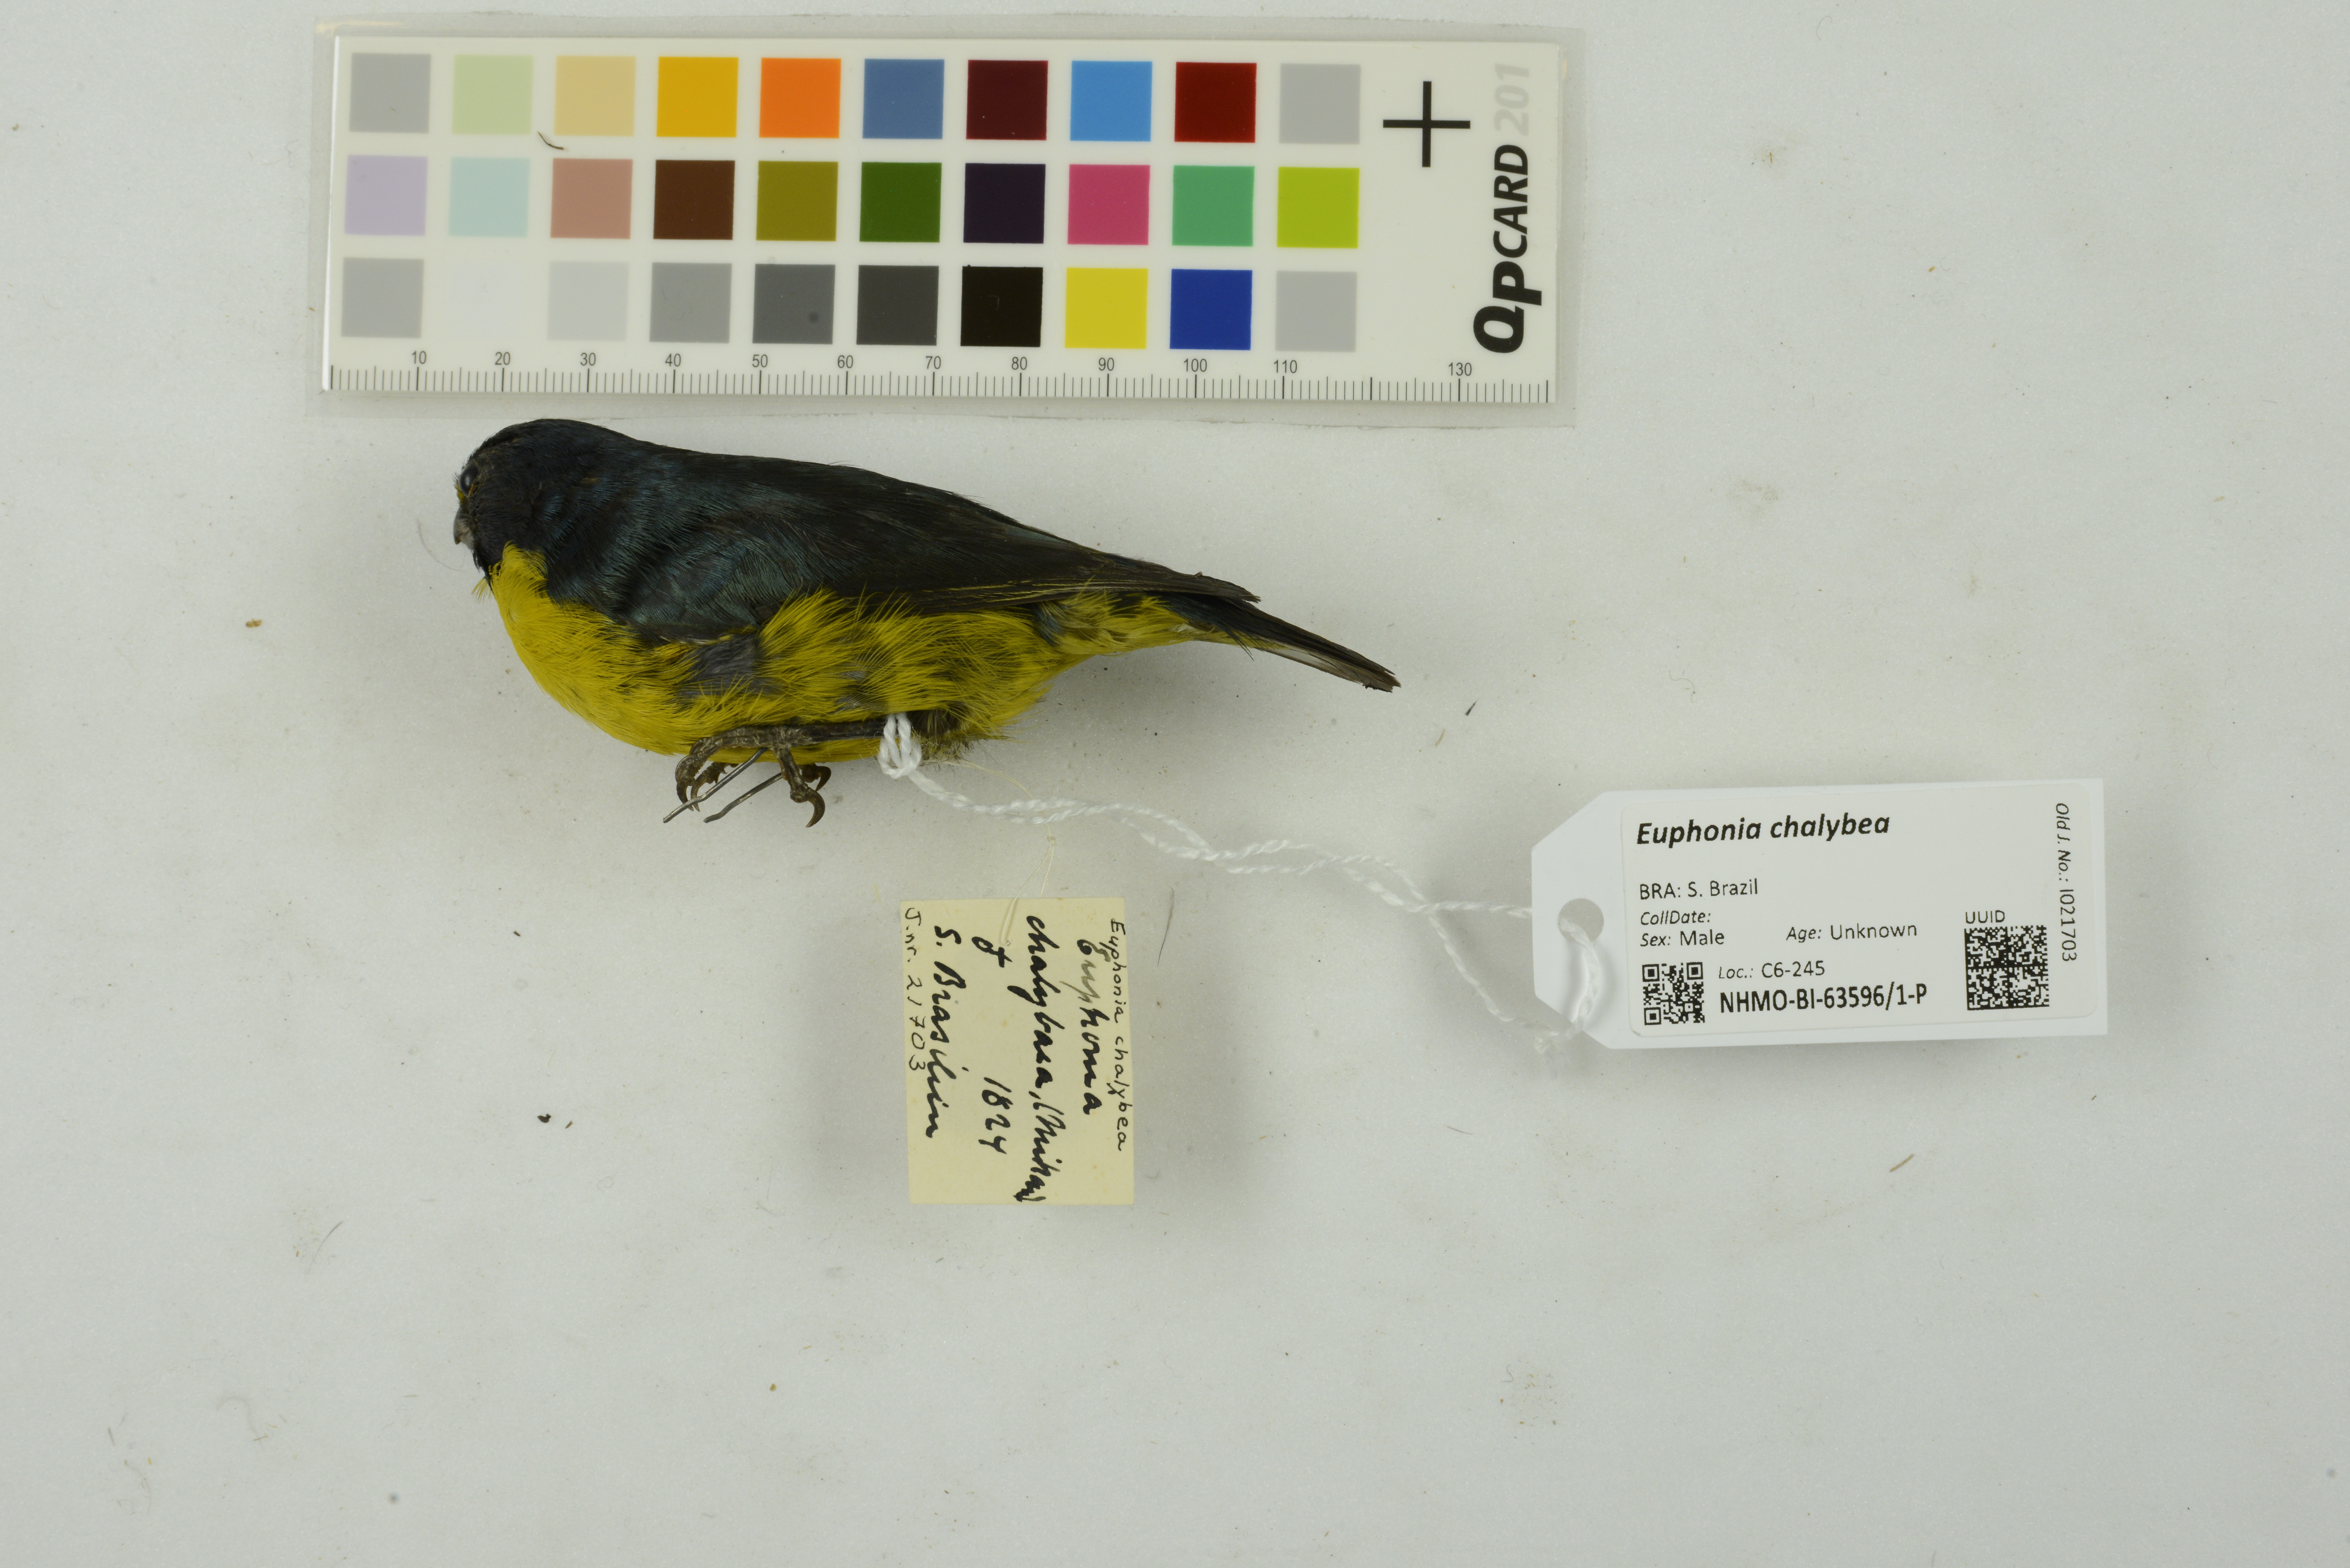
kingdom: Animalia
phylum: Chordata
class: Aves
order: Passeriformes
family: Fringillidae
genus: Euphonia
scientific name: Euphonia chalybea
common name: Green-chinned euphonia
